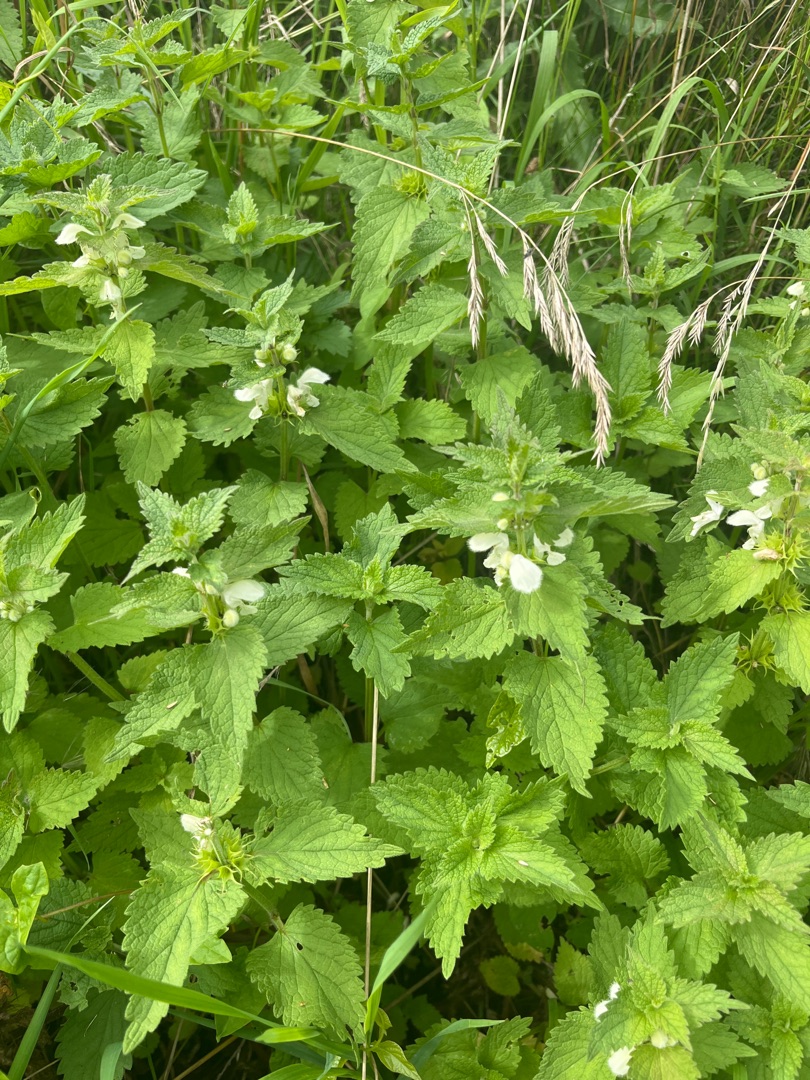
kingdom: Plantae
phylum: Tracheophyta
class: Magnoliopsida
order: Lamiales
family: Lamiaceae
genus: Lamium
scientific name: Lamium album
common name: Døvnælde
